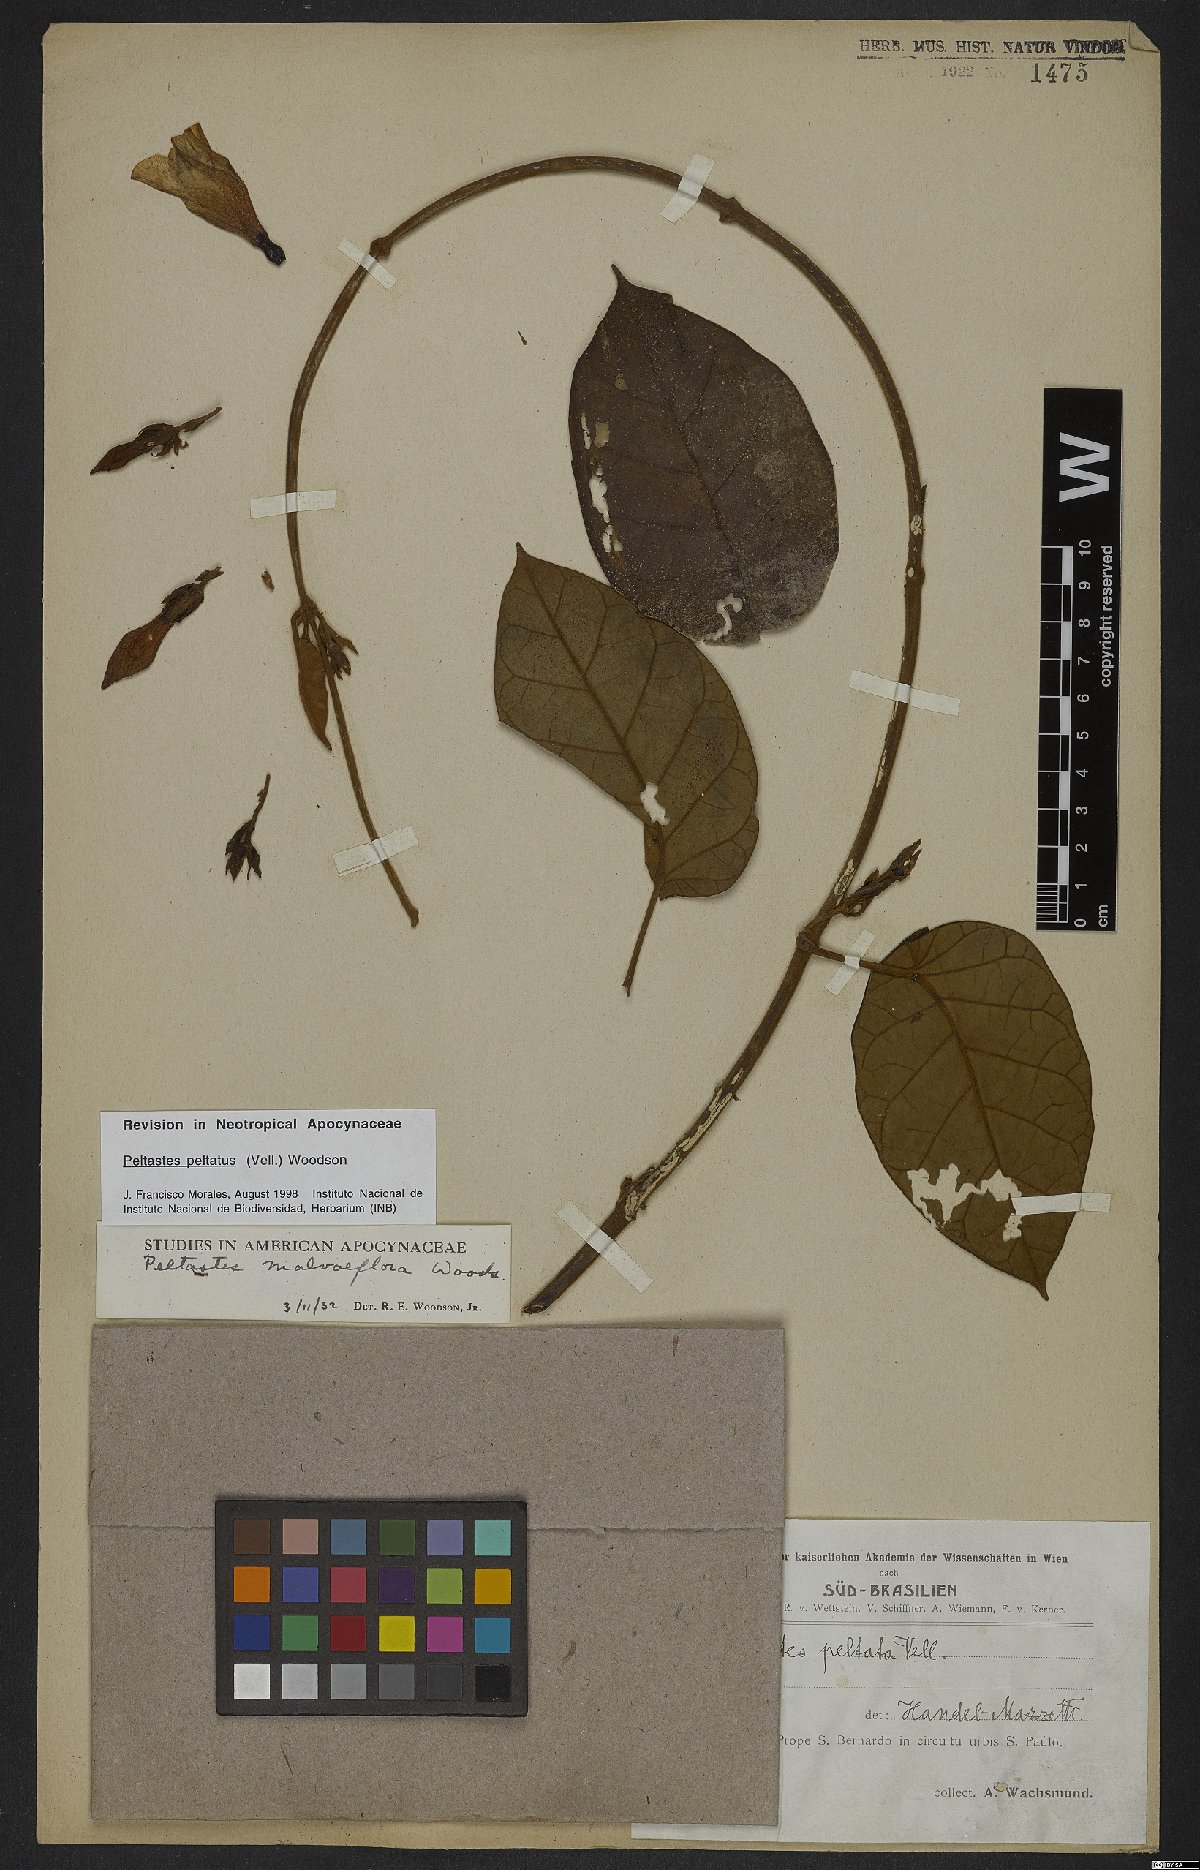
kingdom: Plantae
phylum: Tracheophyta
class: Magnoliopsida
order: Gentianales
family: Apocynaceae
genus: Macropharynx
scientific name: Macropharynx peltata
